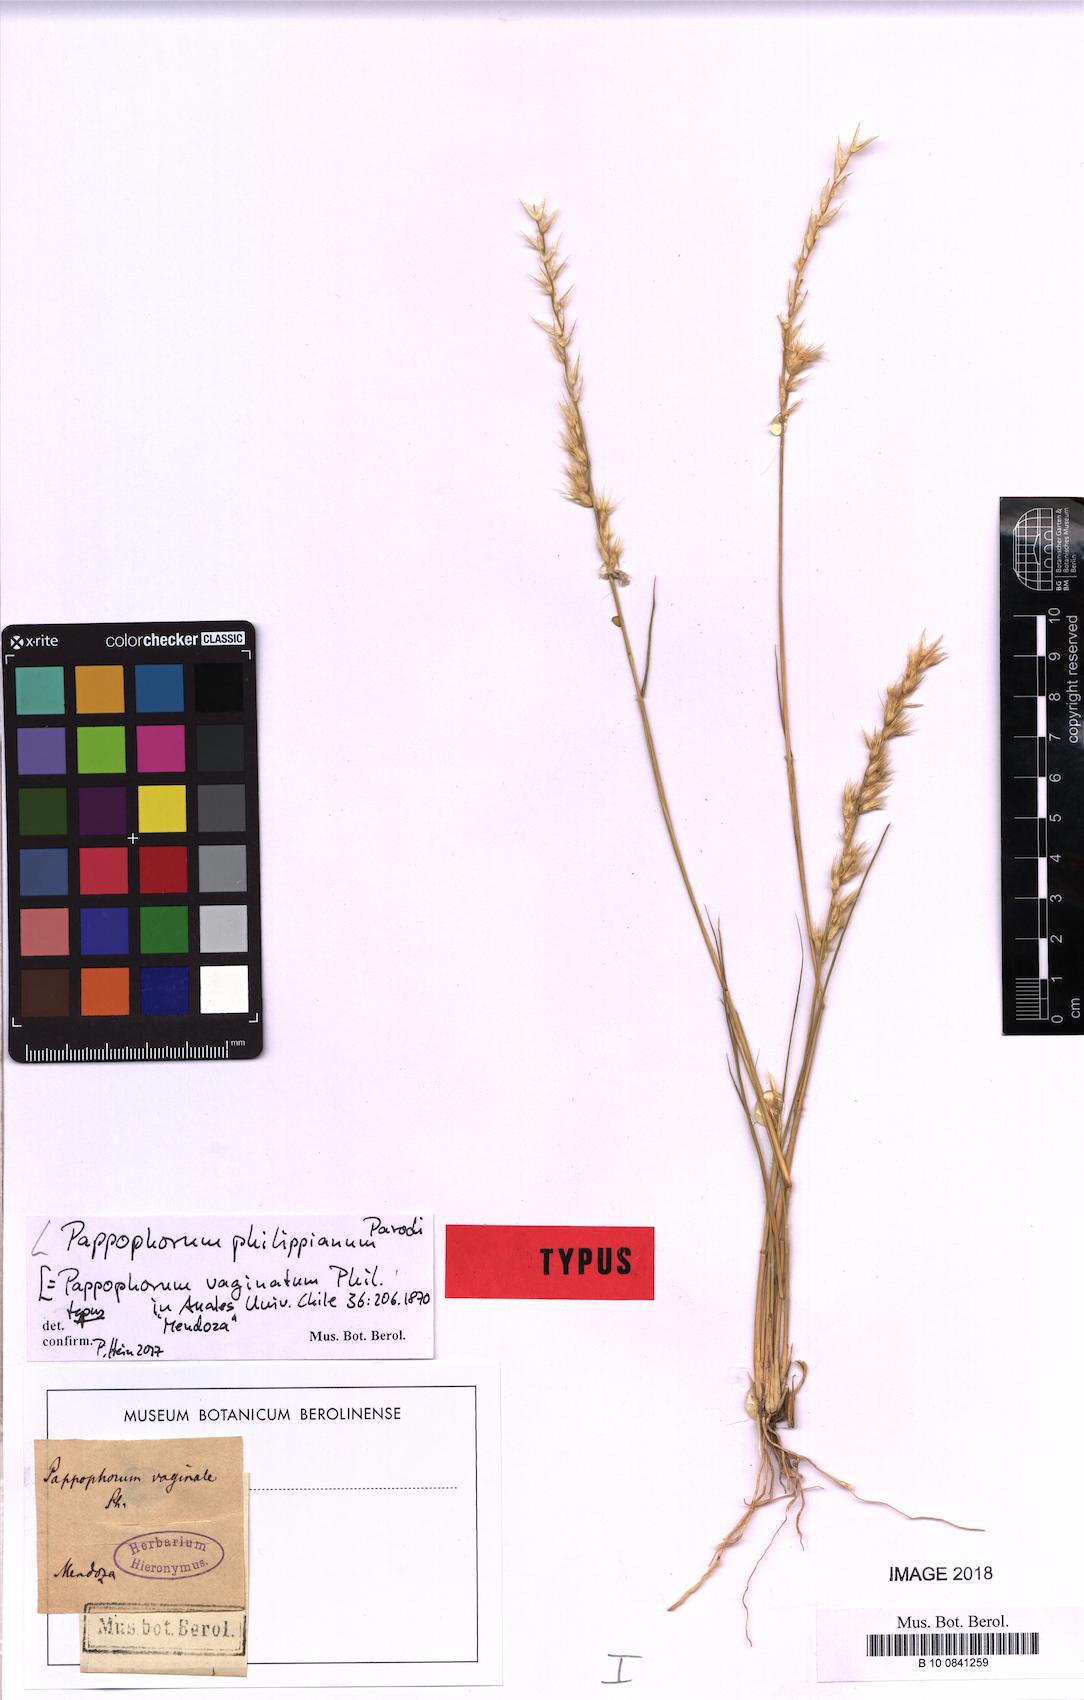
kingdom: Plantae
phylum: Tracheophyta
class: Liliopsida
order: Poales
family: Poaceae
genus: Pappophorum
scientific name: Pappophorum philippianum
